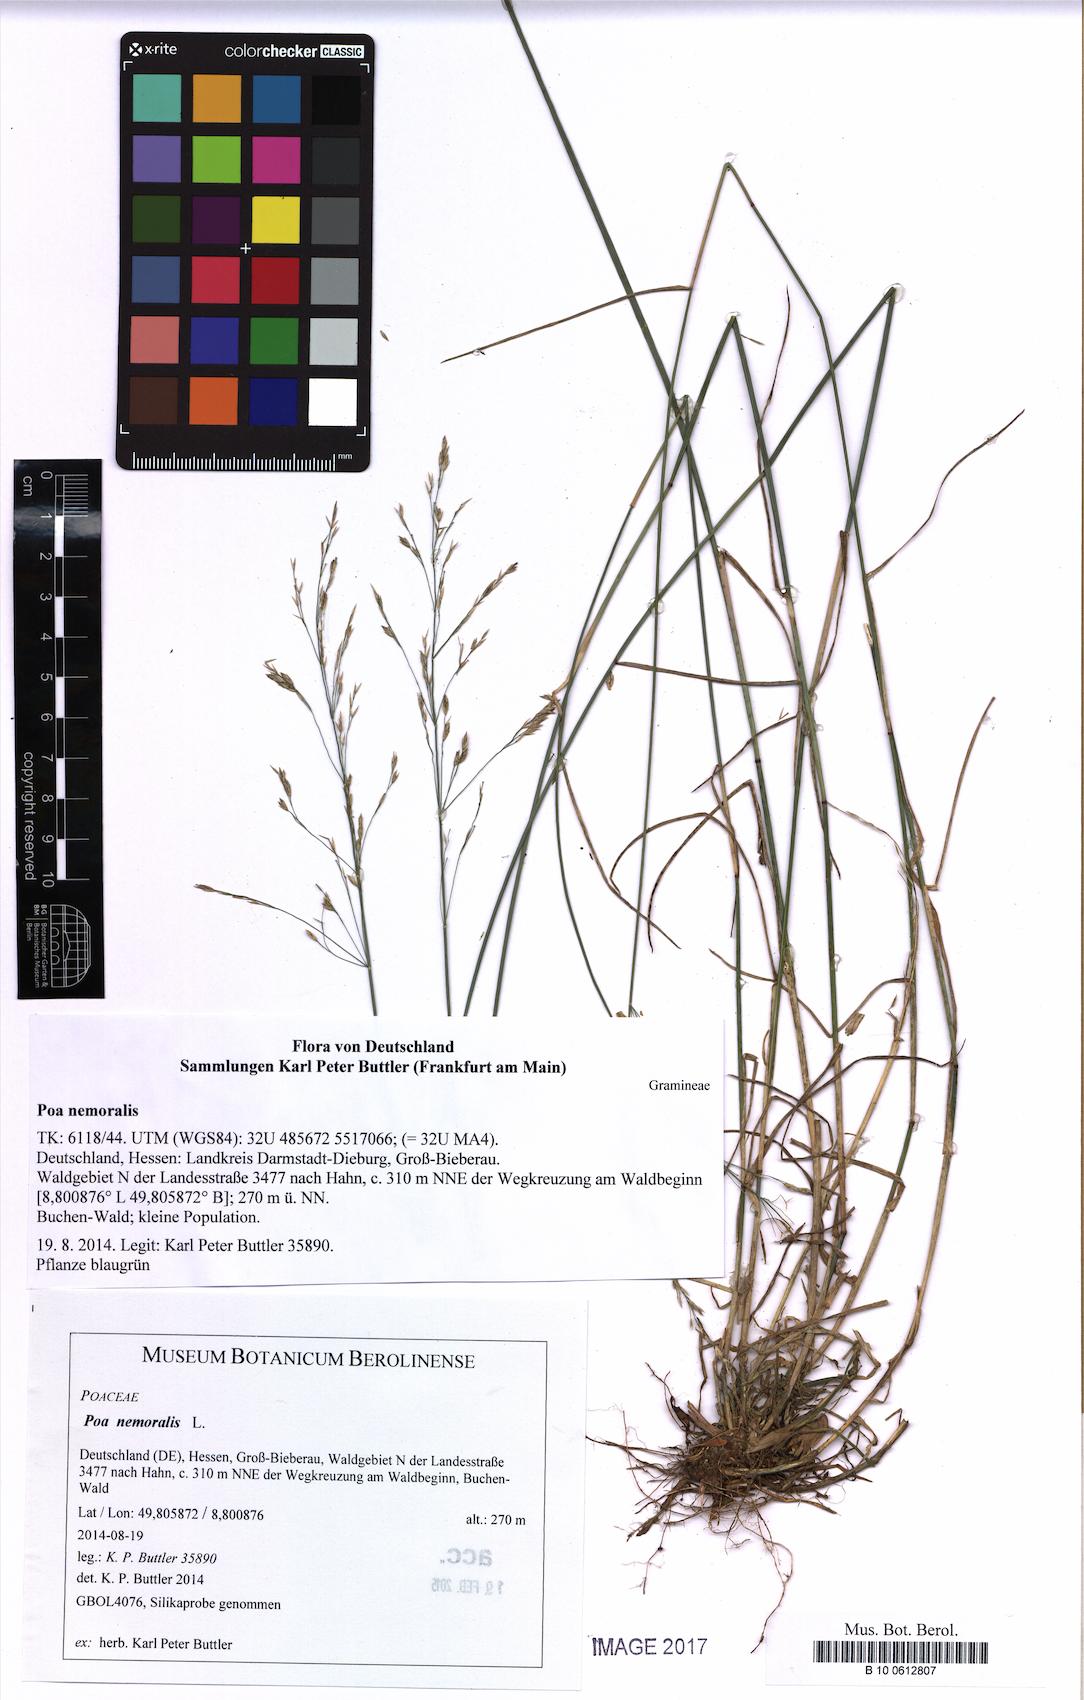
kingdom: Plantae
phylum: Tracheophyta
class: Liliopsida
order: Poales
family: Poaceae
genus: Poa
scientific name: Poa nemoralis
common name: Wood bluegrass
